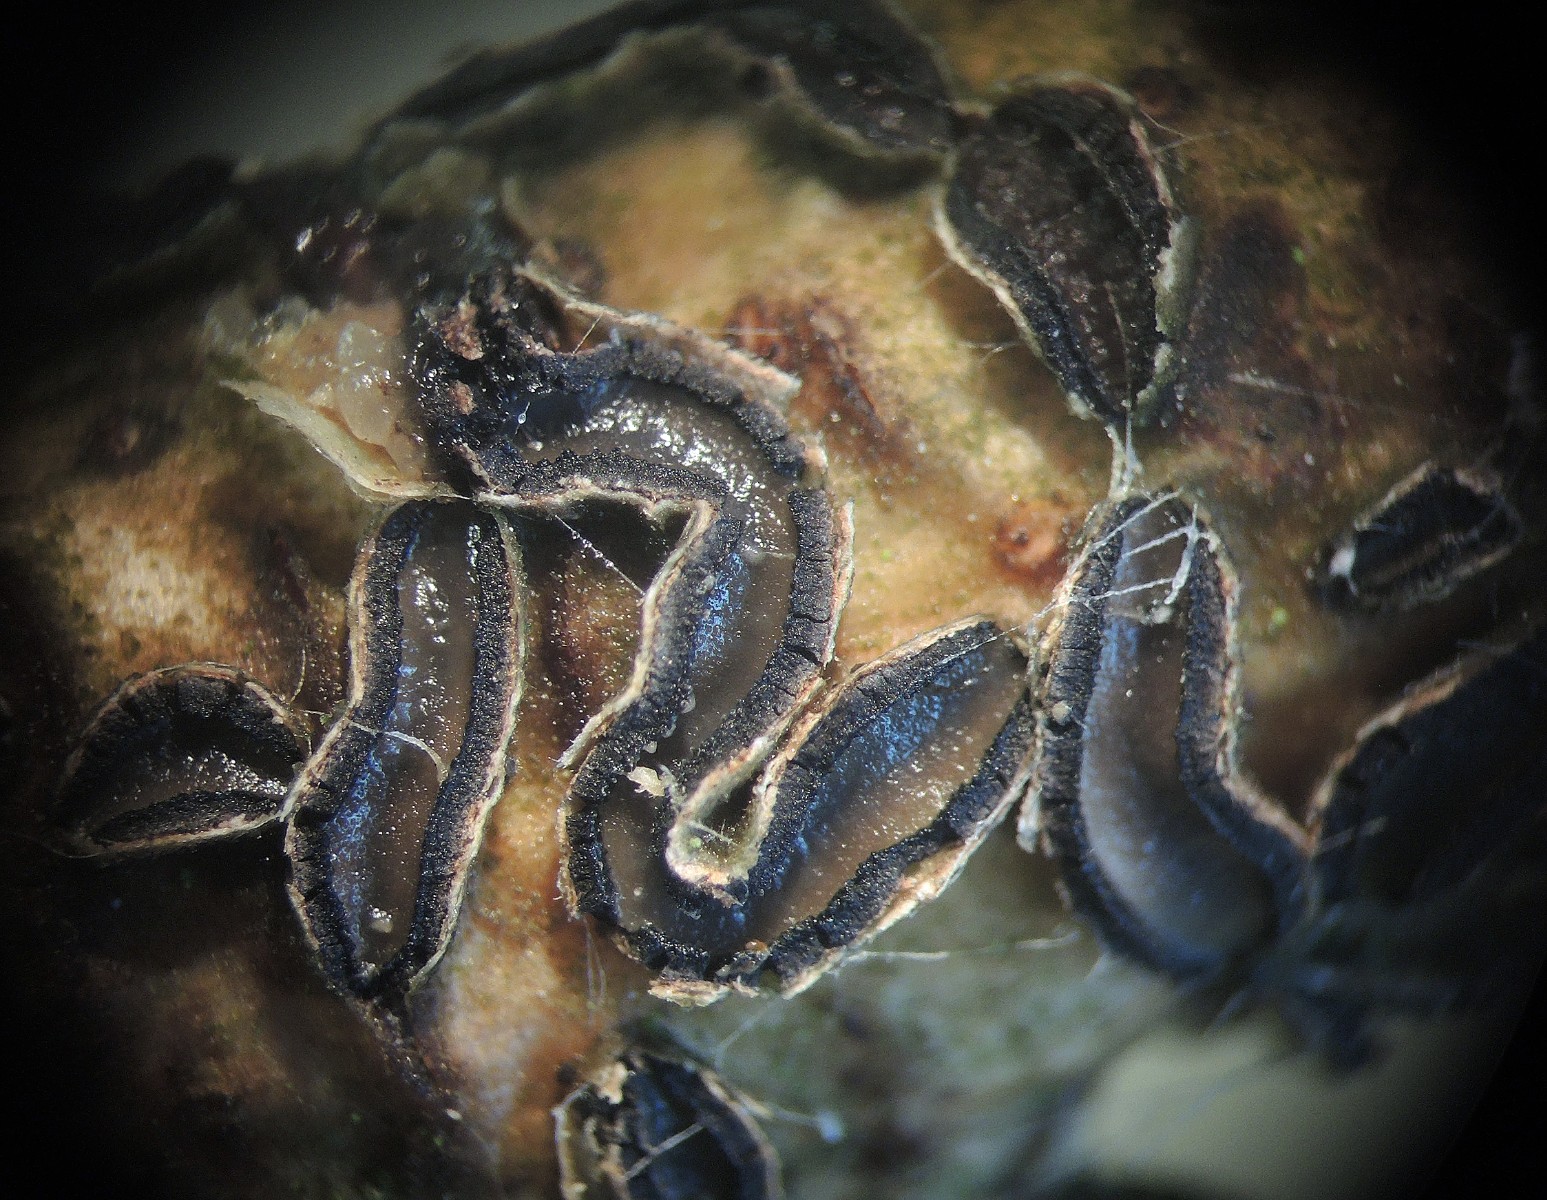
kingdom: Fungi
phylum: Ascomycota
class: Leotiomycetes
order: Rhytismatales
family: Rhytismataceae
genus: Colpoma
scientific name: Colpoma quercinum
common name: ege-sprækkeskive
